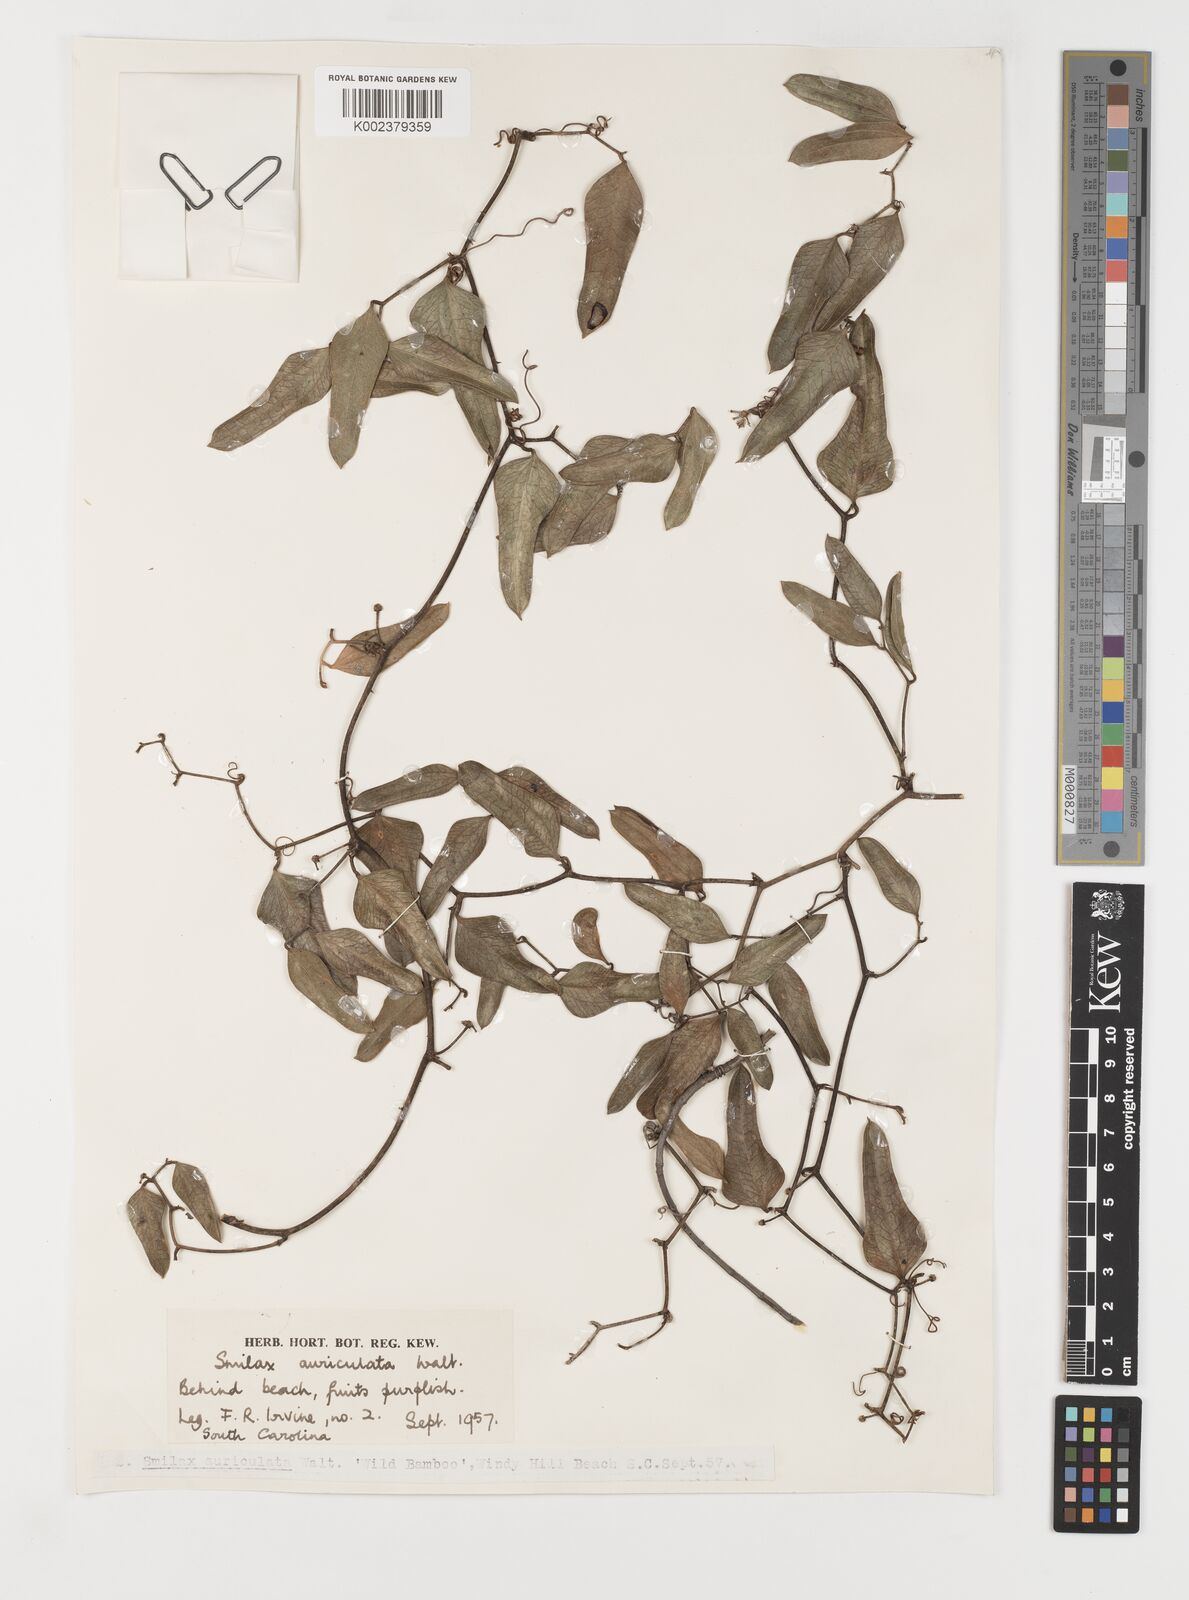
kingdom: Plantae
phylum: Tracheophyta
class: Liliopsida
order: Liliales
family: Smilacaceae
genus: Smilax
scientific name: Smilax auriculata
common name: Wild bamboo
